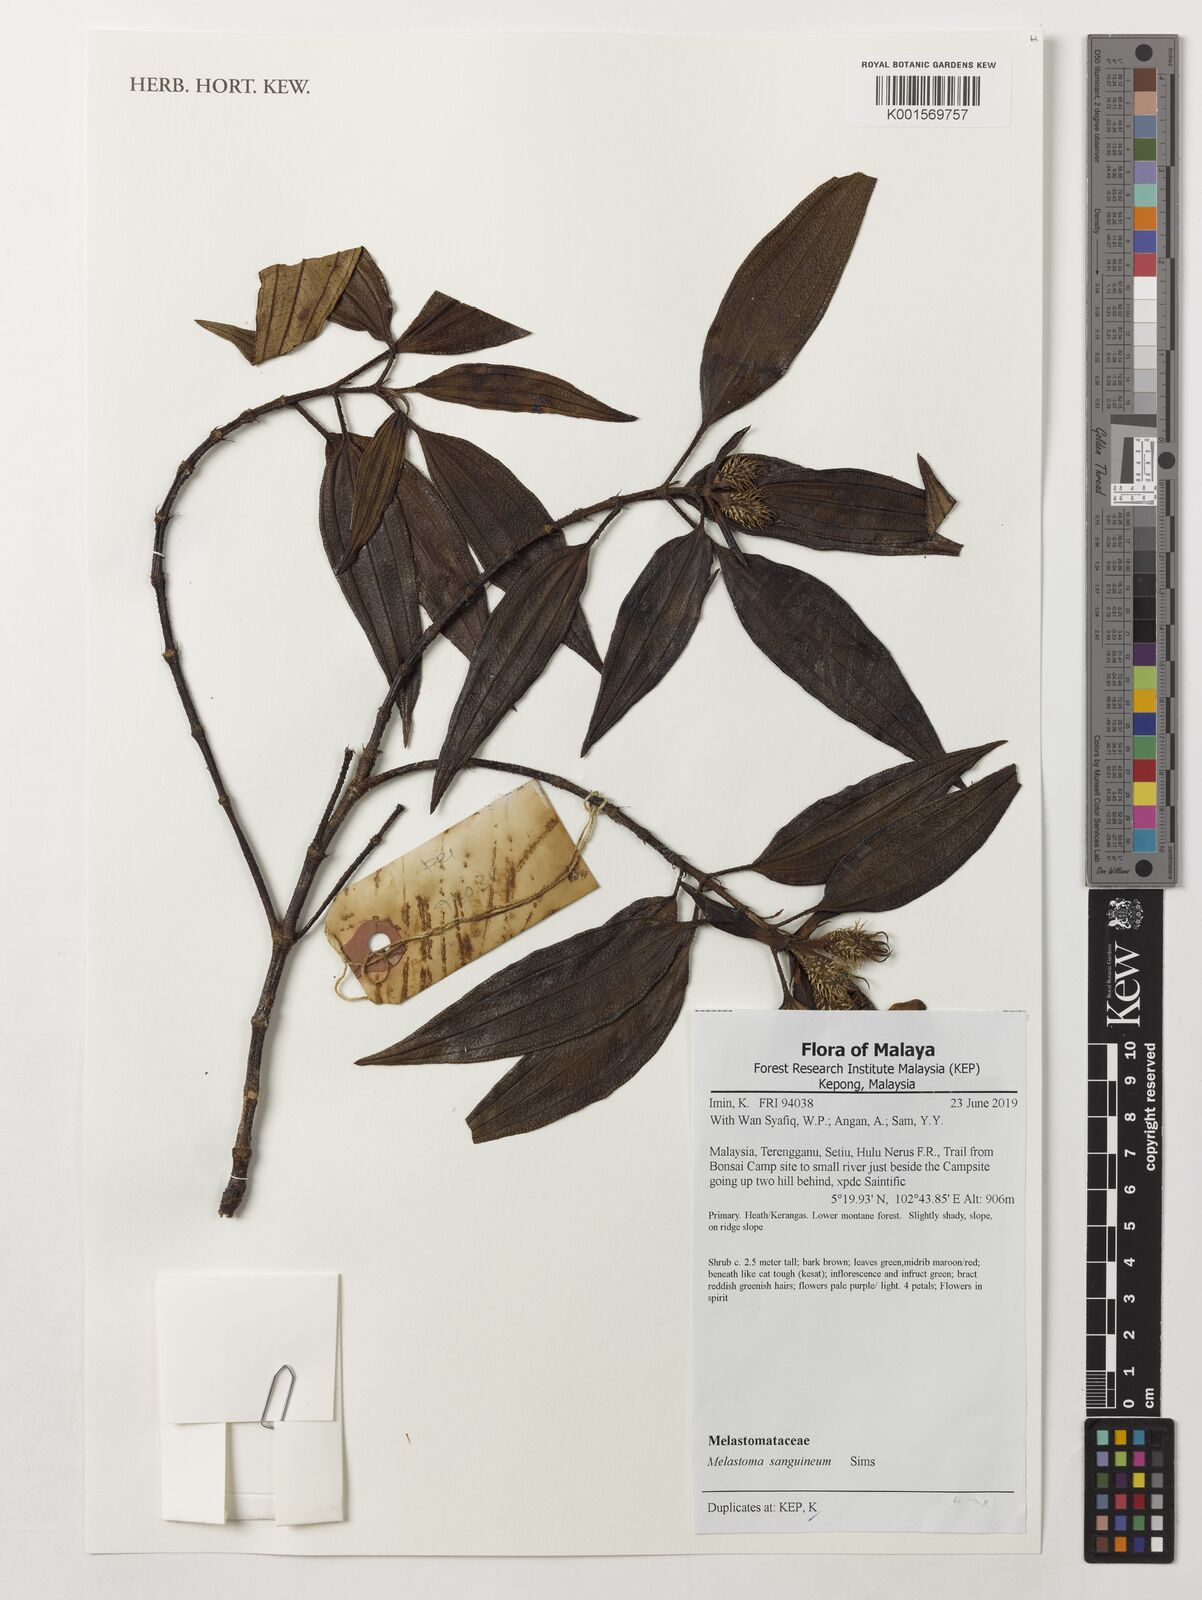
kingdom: Plantae
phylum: Tracheophyta
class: Magnoliopsida
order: Myrtales
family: Melastomataceae
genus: Melastoma
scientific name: Melastoma sanguineum
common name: Red melastome
